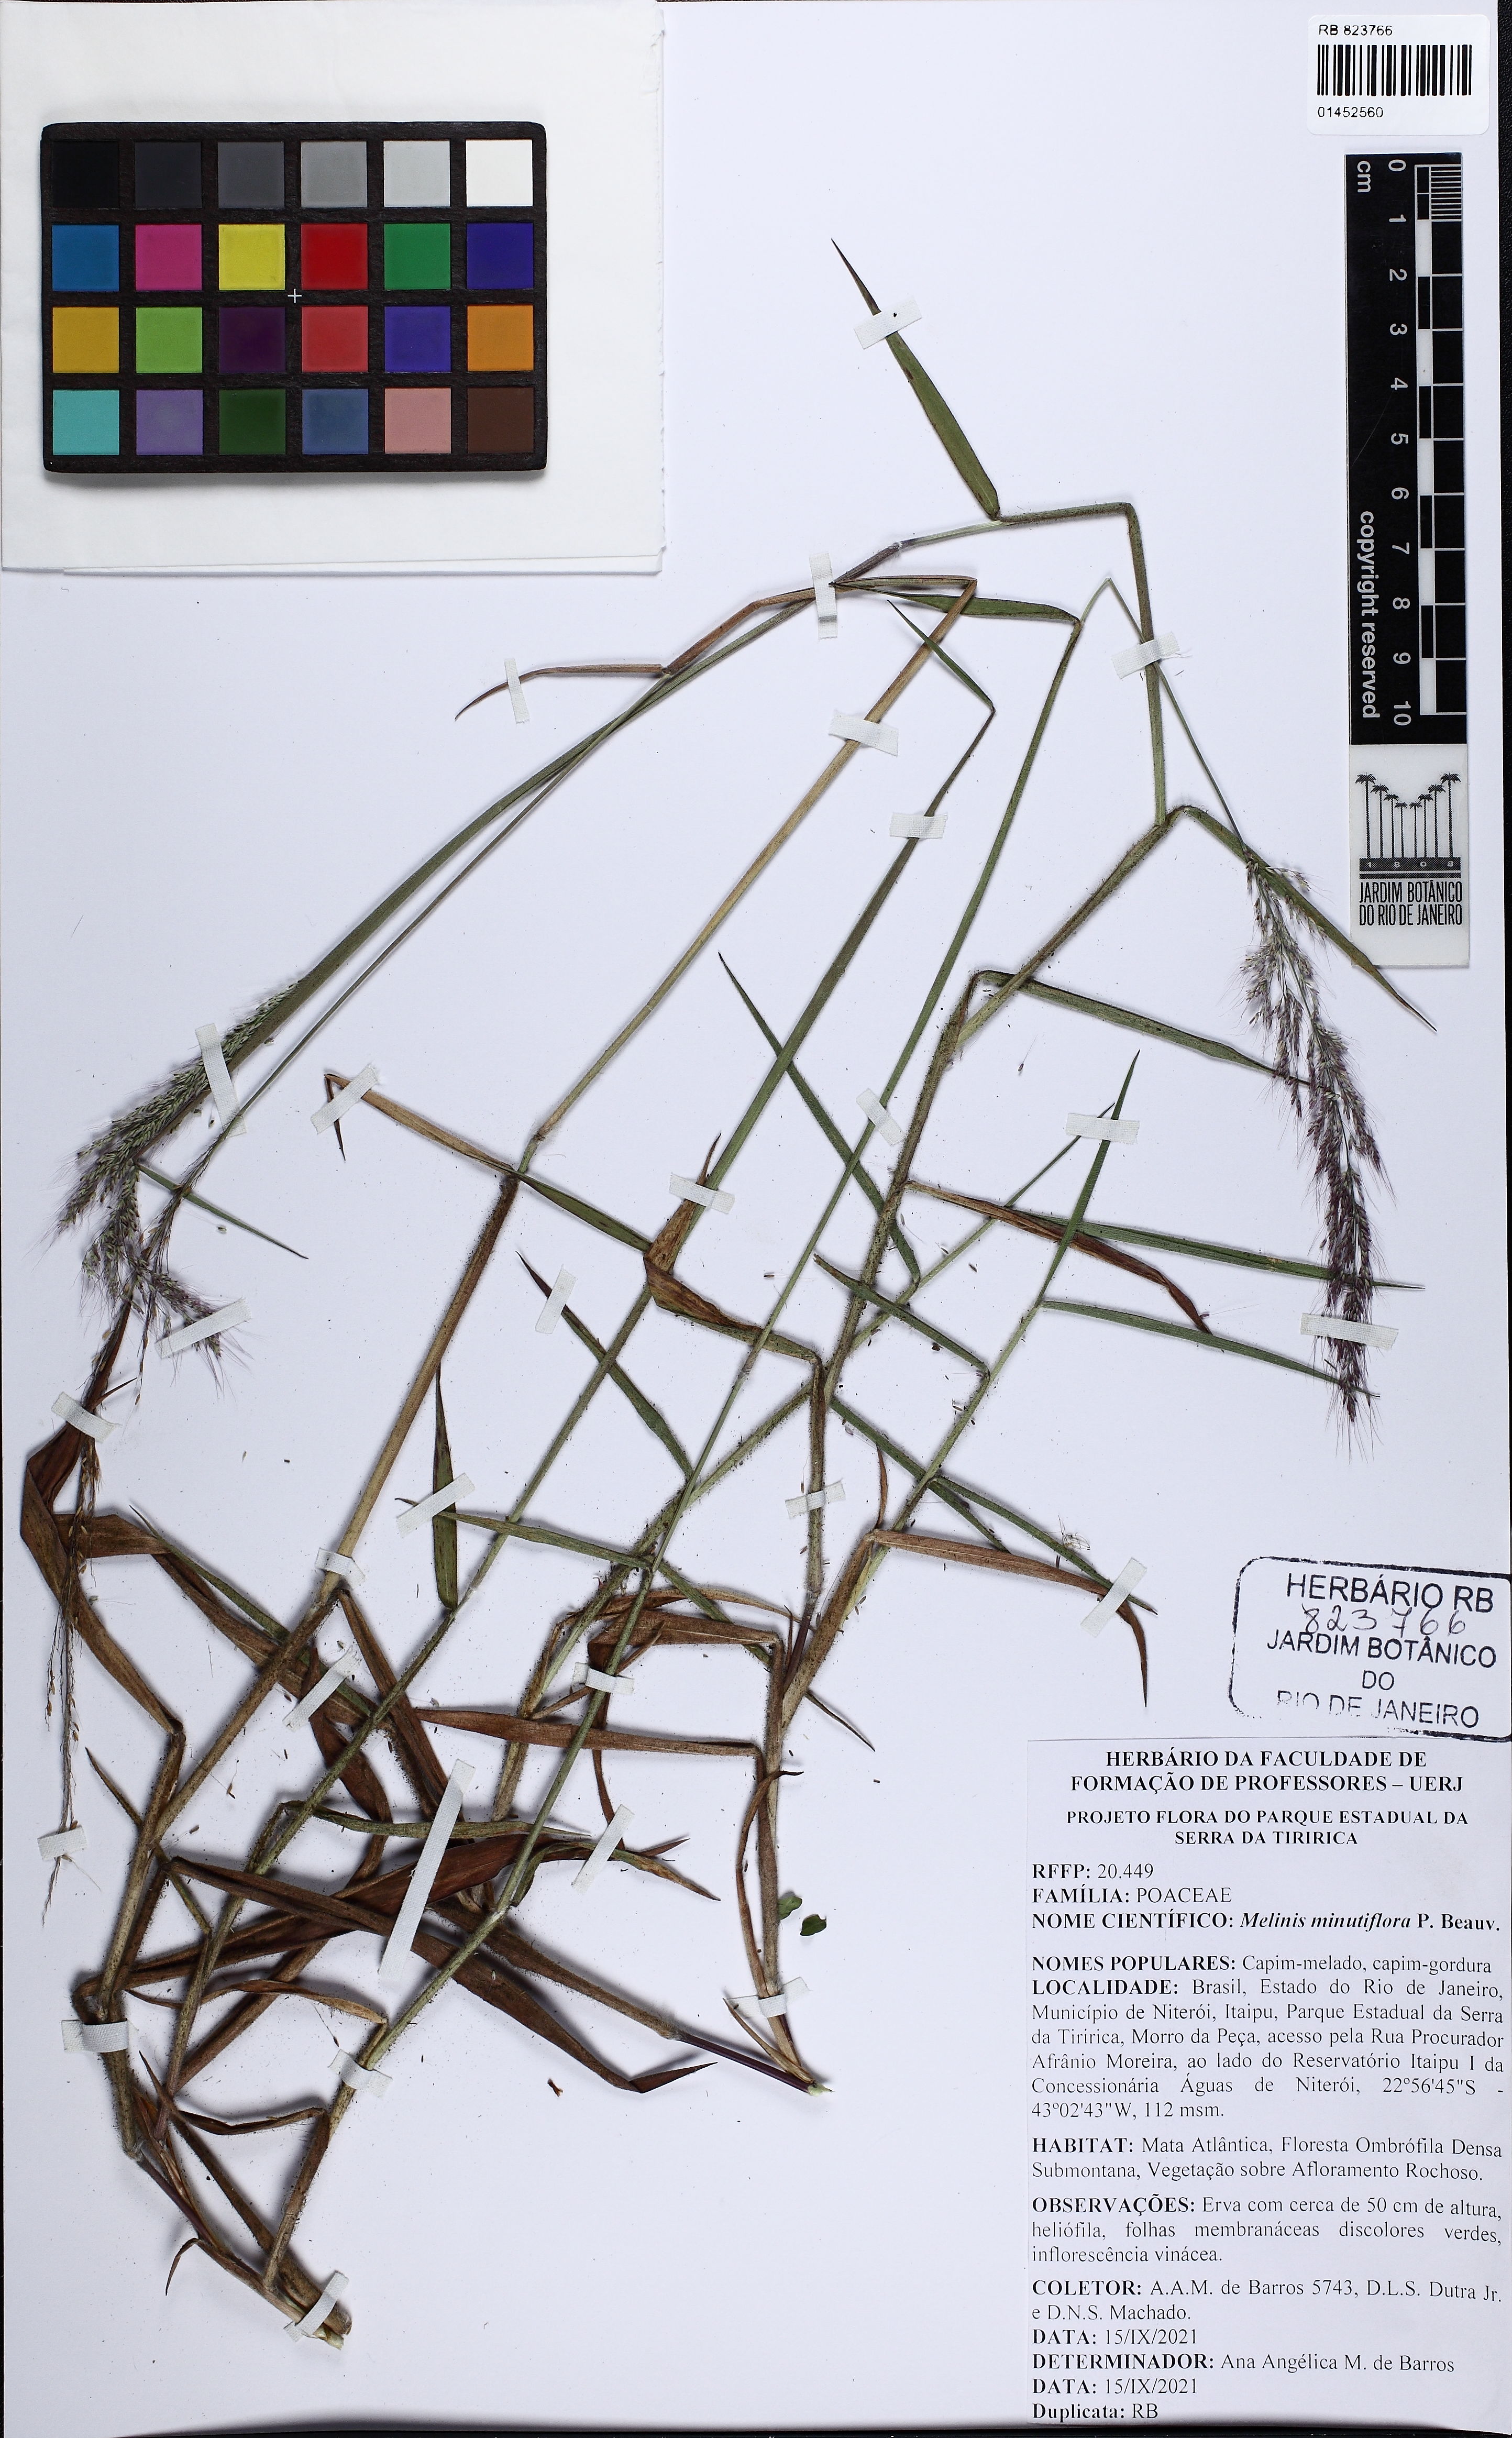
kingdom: Plantae
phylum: Tracheophyta
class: Liliopsida
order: Poales
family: Poaceae
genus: Melinis
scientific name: Melinis minutiflora
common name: Molassesgrass
